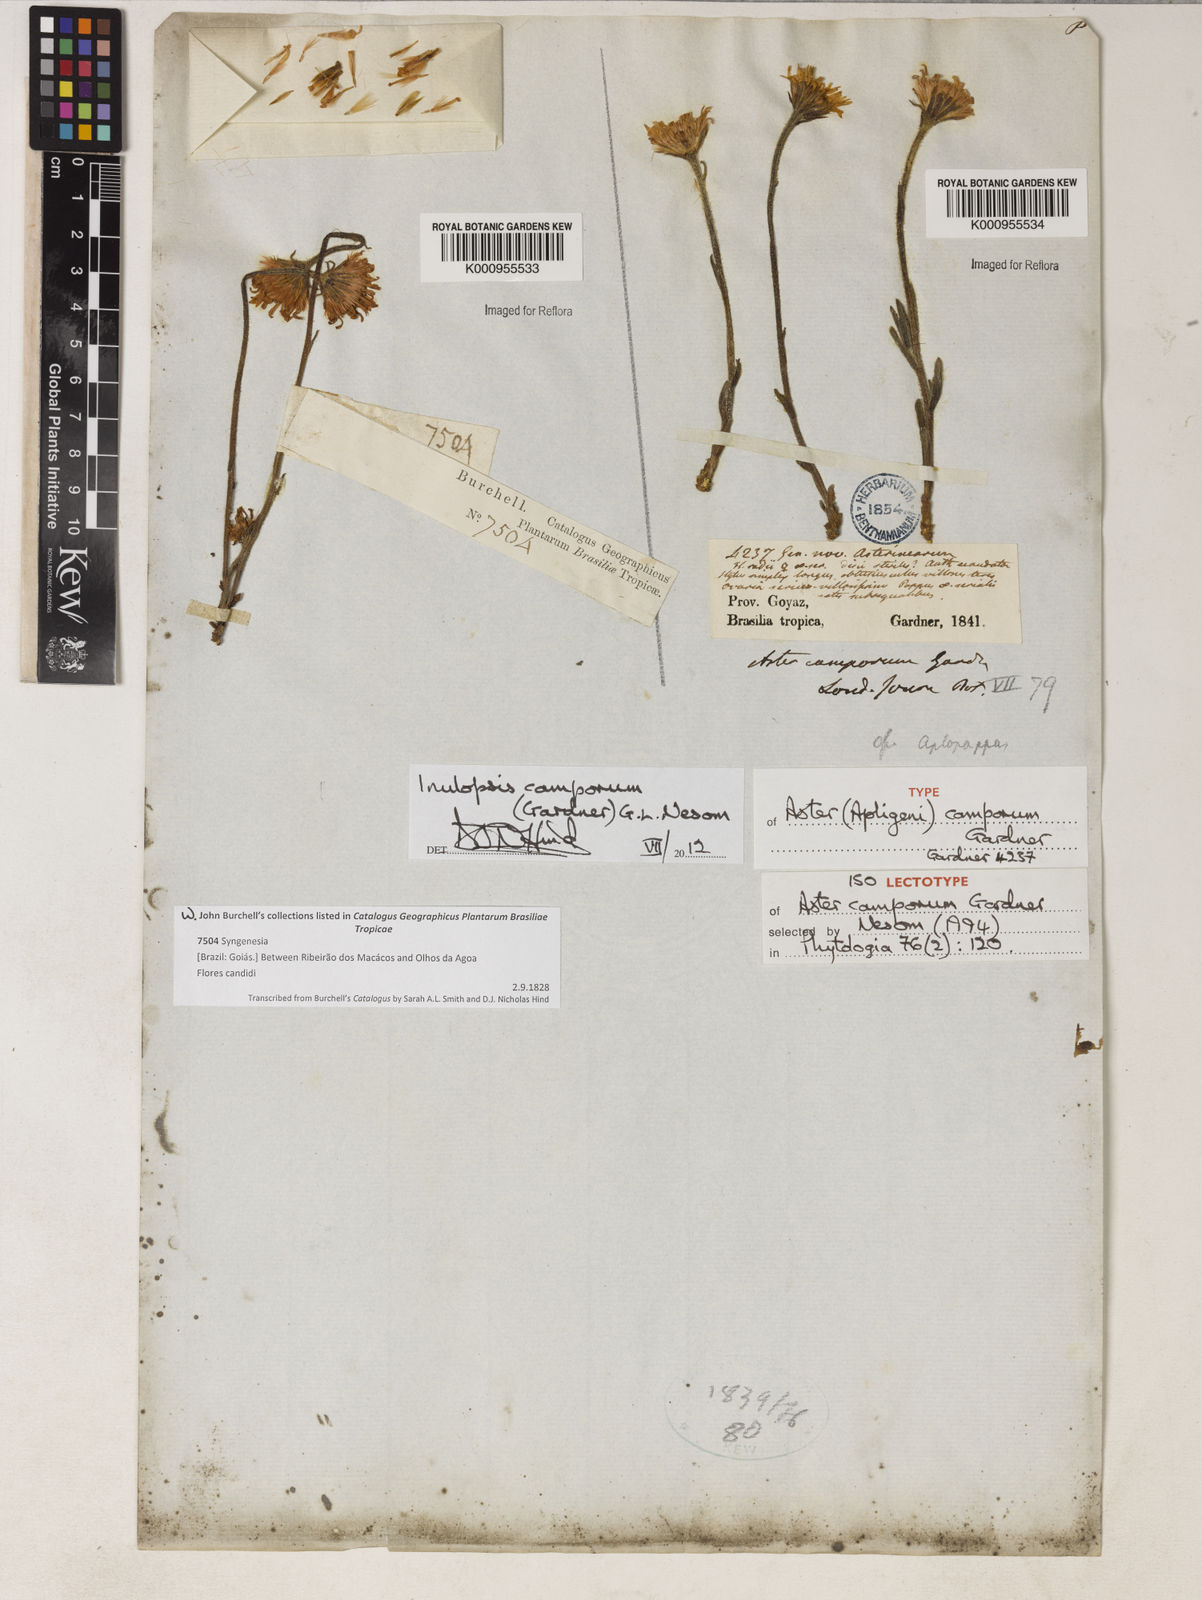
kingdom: Plantae
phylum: Tracheophyta
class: Magnoliopsida
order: Asterales
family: Asteraceae
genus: Inulopsis
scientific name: Inulopsis
